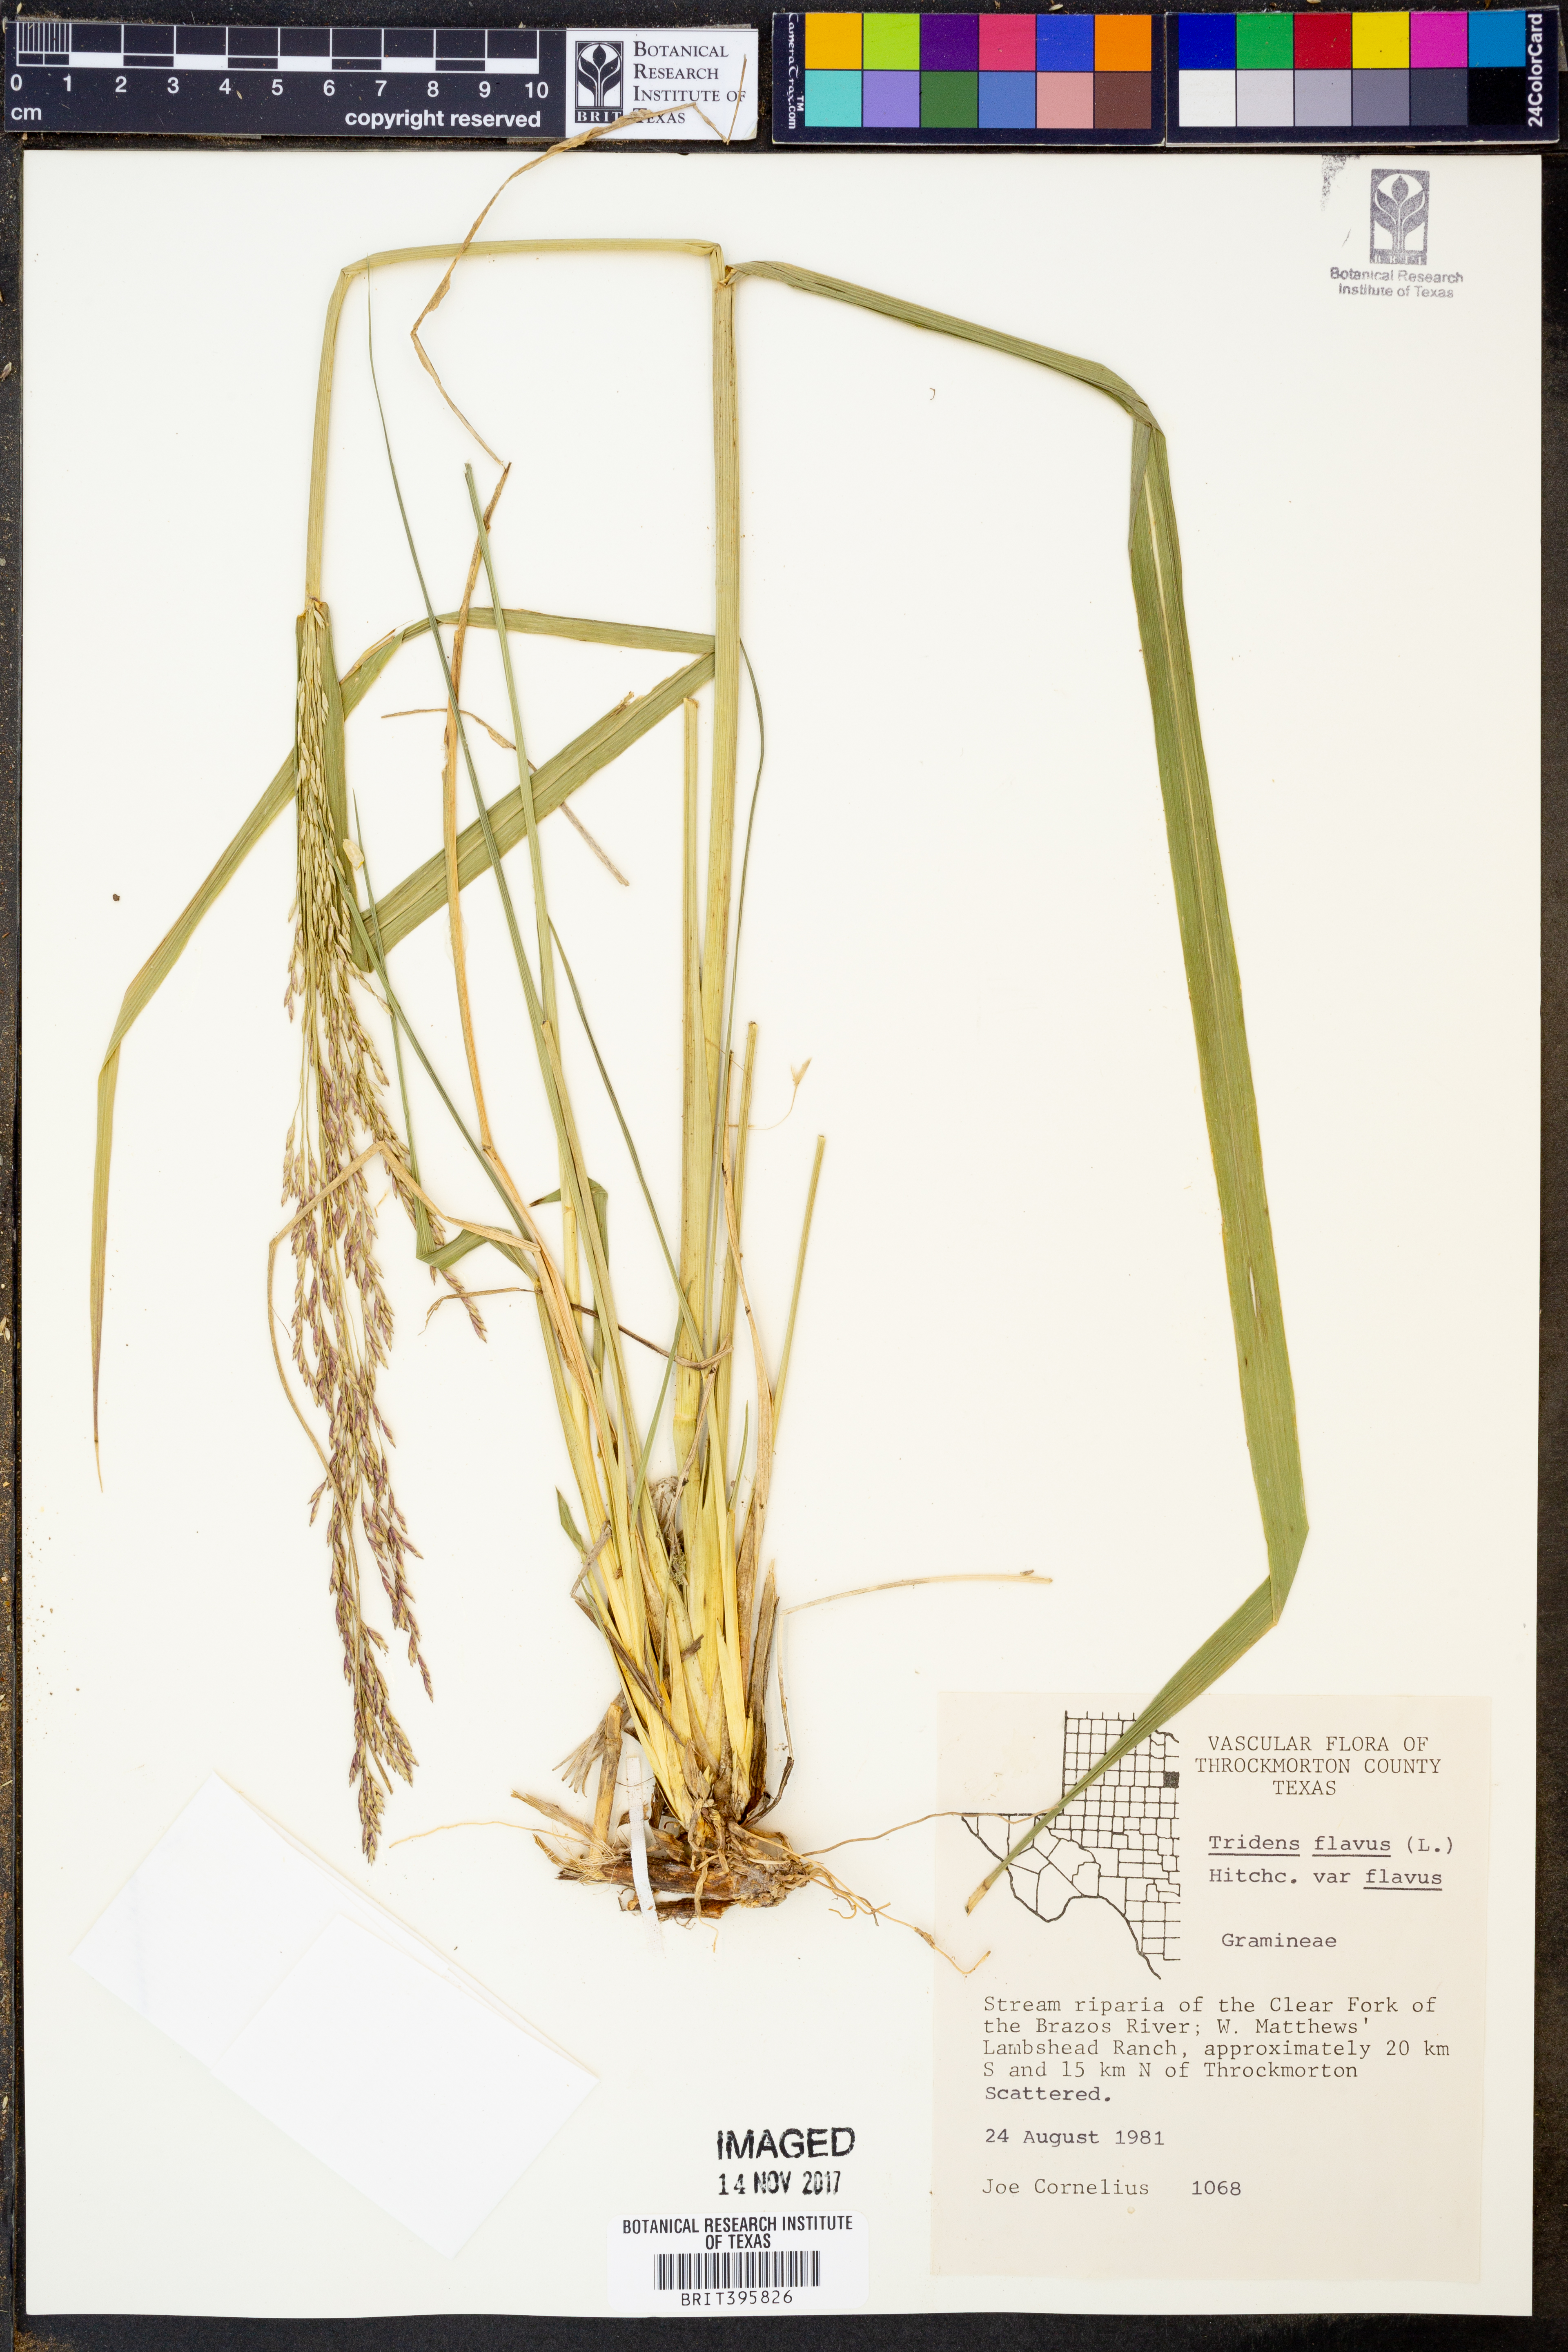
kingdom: Plantae
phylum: Tracheophyta
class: Liliopsida
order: Poales
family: Poaceae
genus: Tridens
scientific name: Tridens flavus
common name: Purpletop
